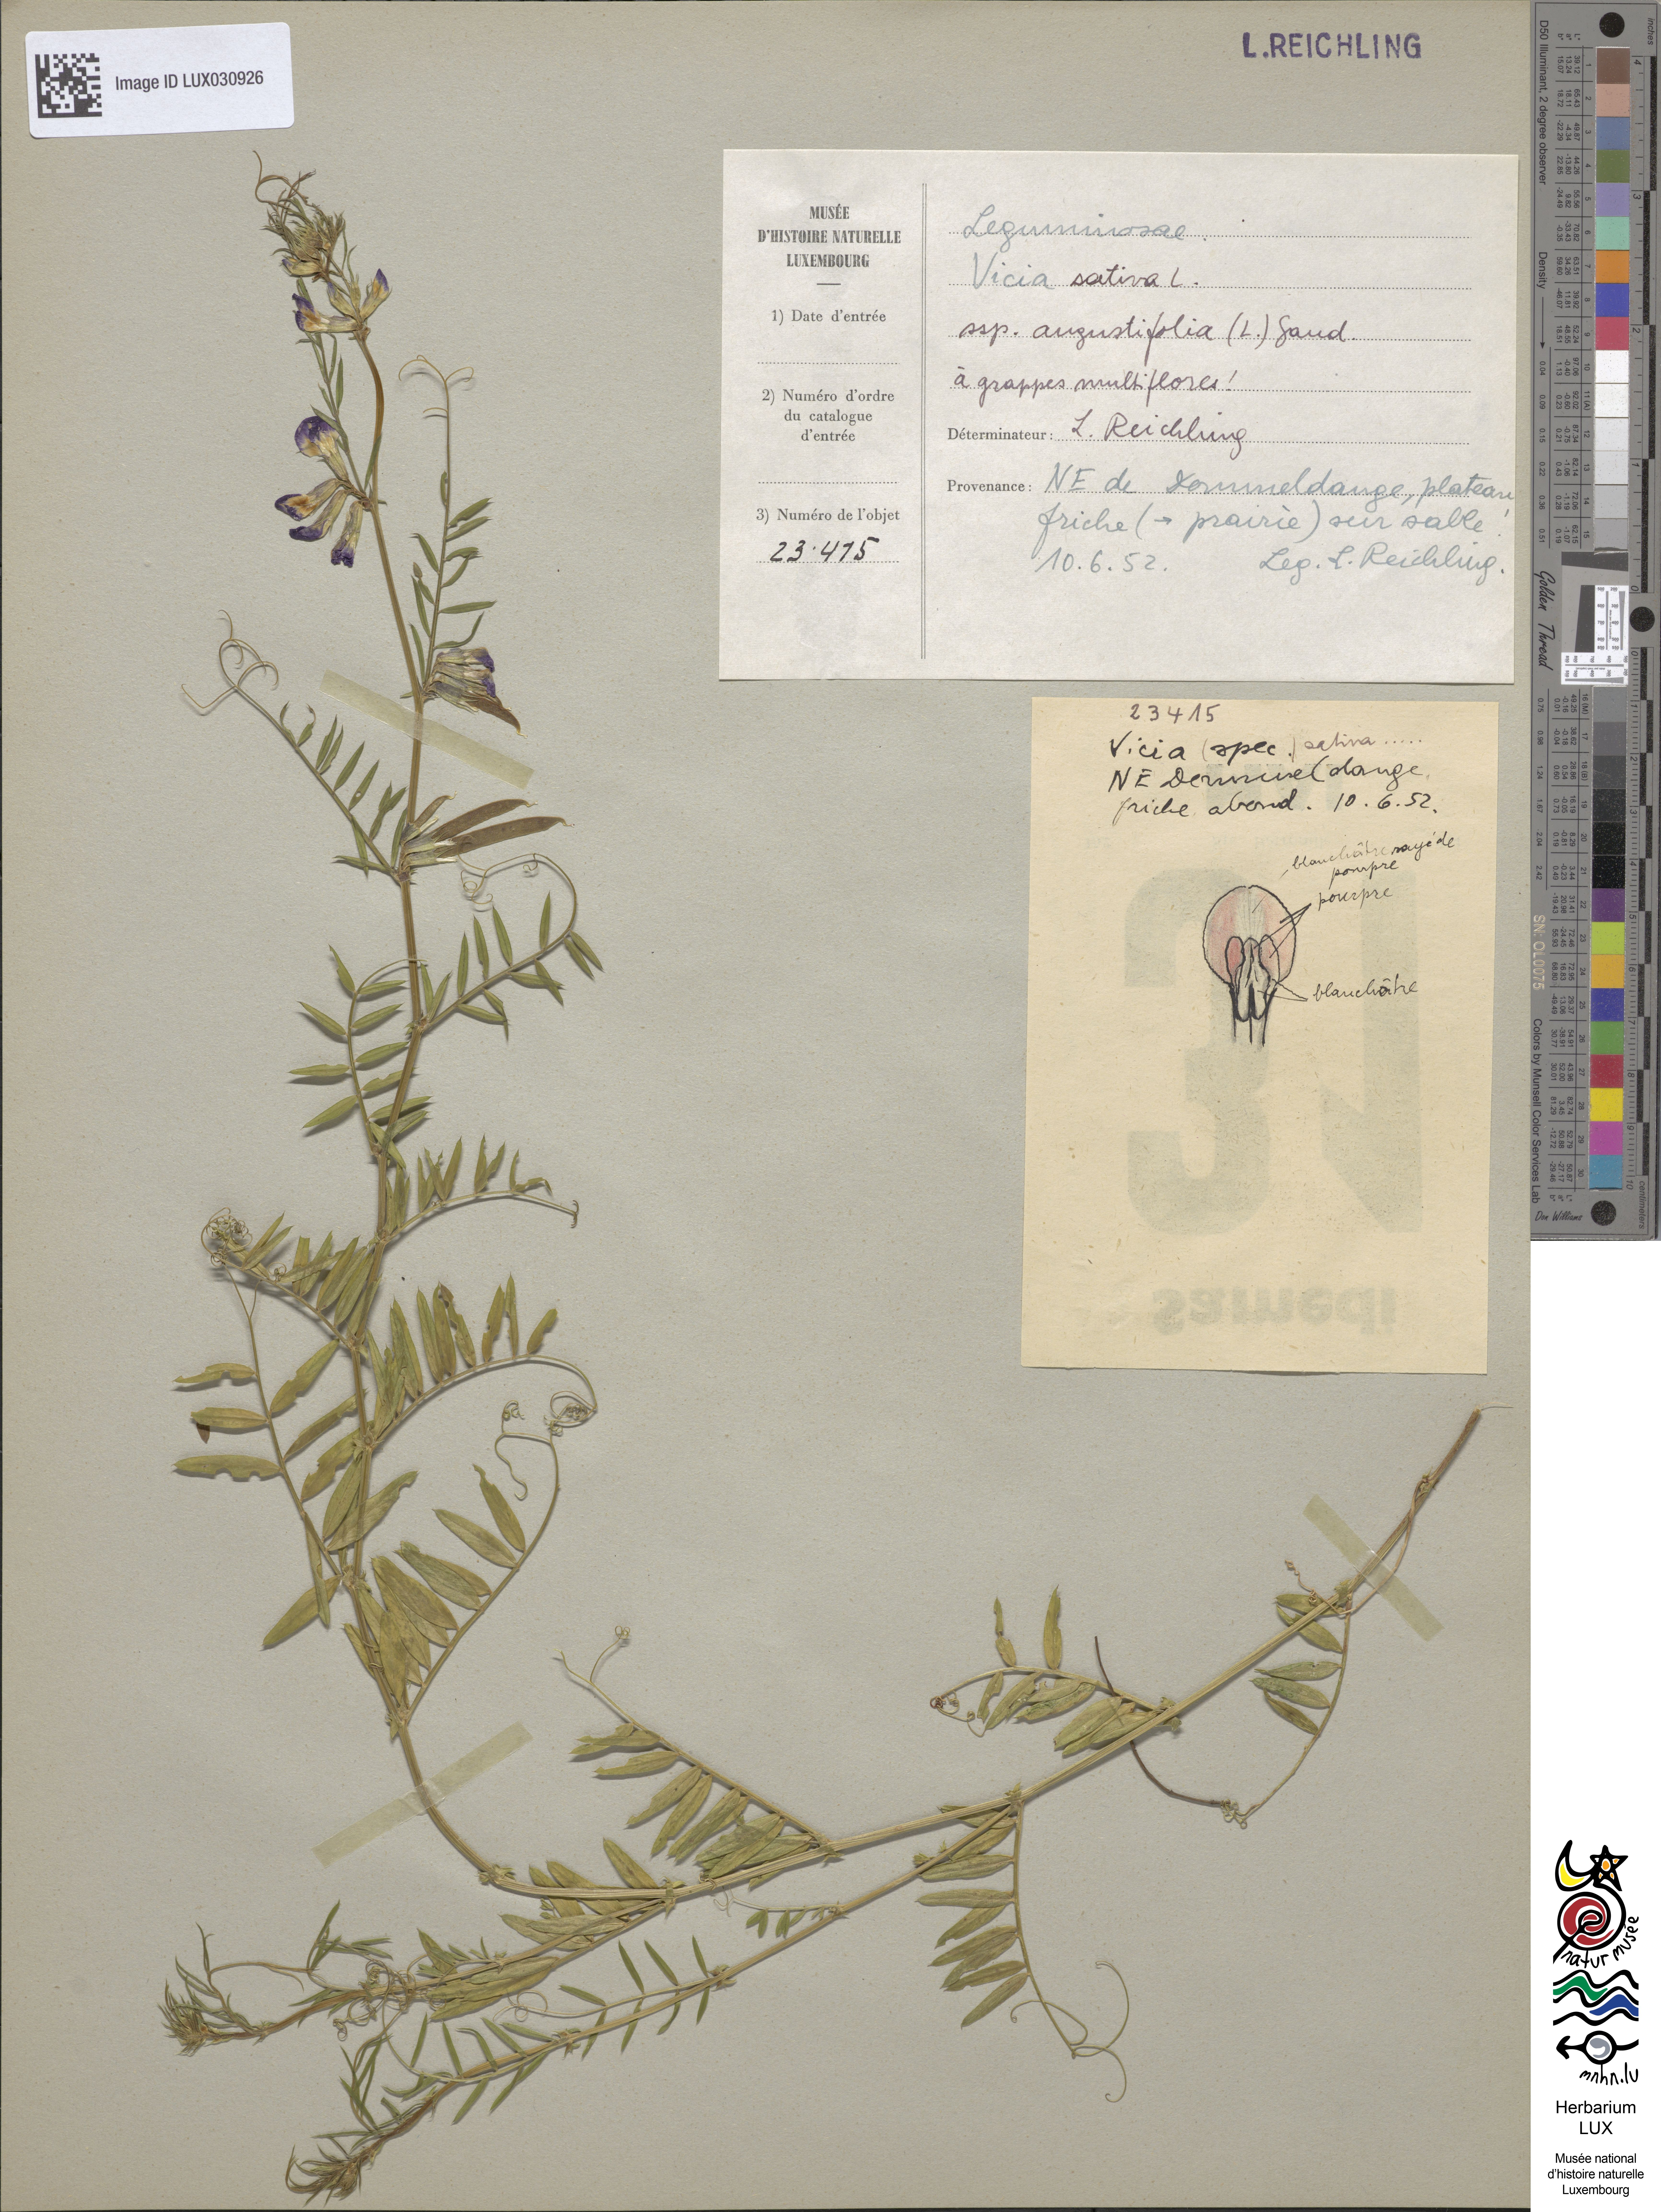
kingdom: Plantae
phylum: Tracheophyta
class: Magnoliopsida
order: Fabales
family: Fabaceae
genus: Vicia
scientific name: Vicia sativa
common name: Garden vetch
